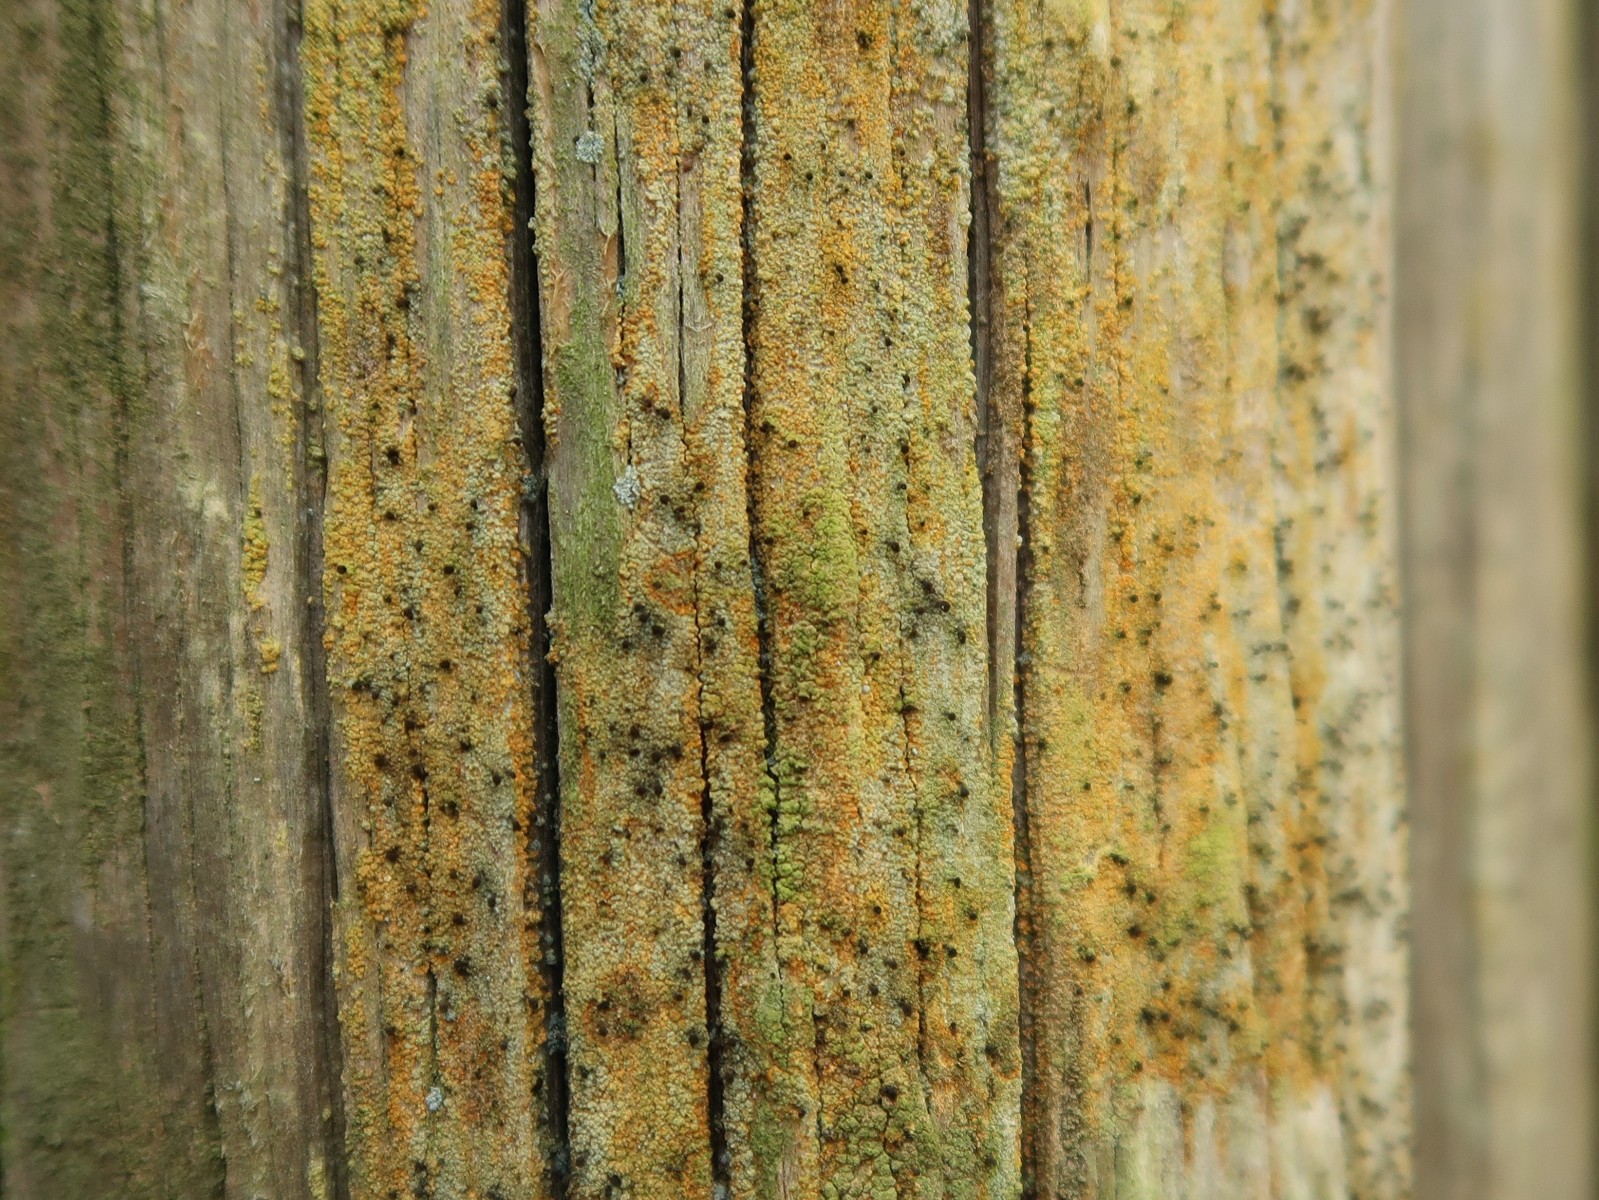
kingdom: Fungi
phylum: Ascomycota
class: Coniocybomycetes
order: Coniocybales
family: Coniocybaceae
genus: Chaenotheca
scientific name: Chaenotheca ferruginea
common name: rustbrun knappenålslav
